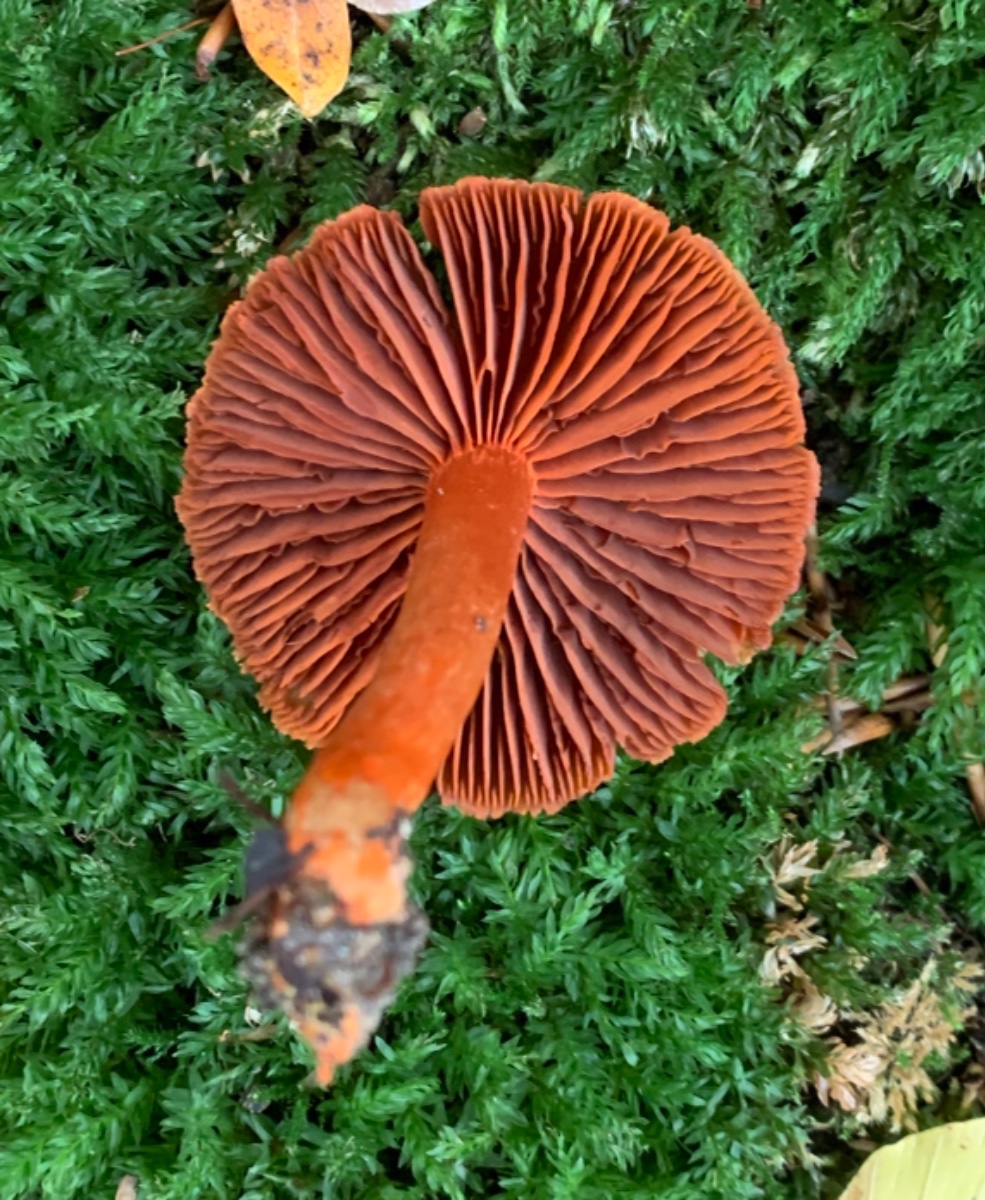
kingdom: Fungi
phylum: Basidiomycota
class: Agaricomycetes
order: Agaricales
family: Cortinariaceae
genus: Cortinarius
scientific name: Cortinarius cinnabarinus
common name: cinnober-slørhat
